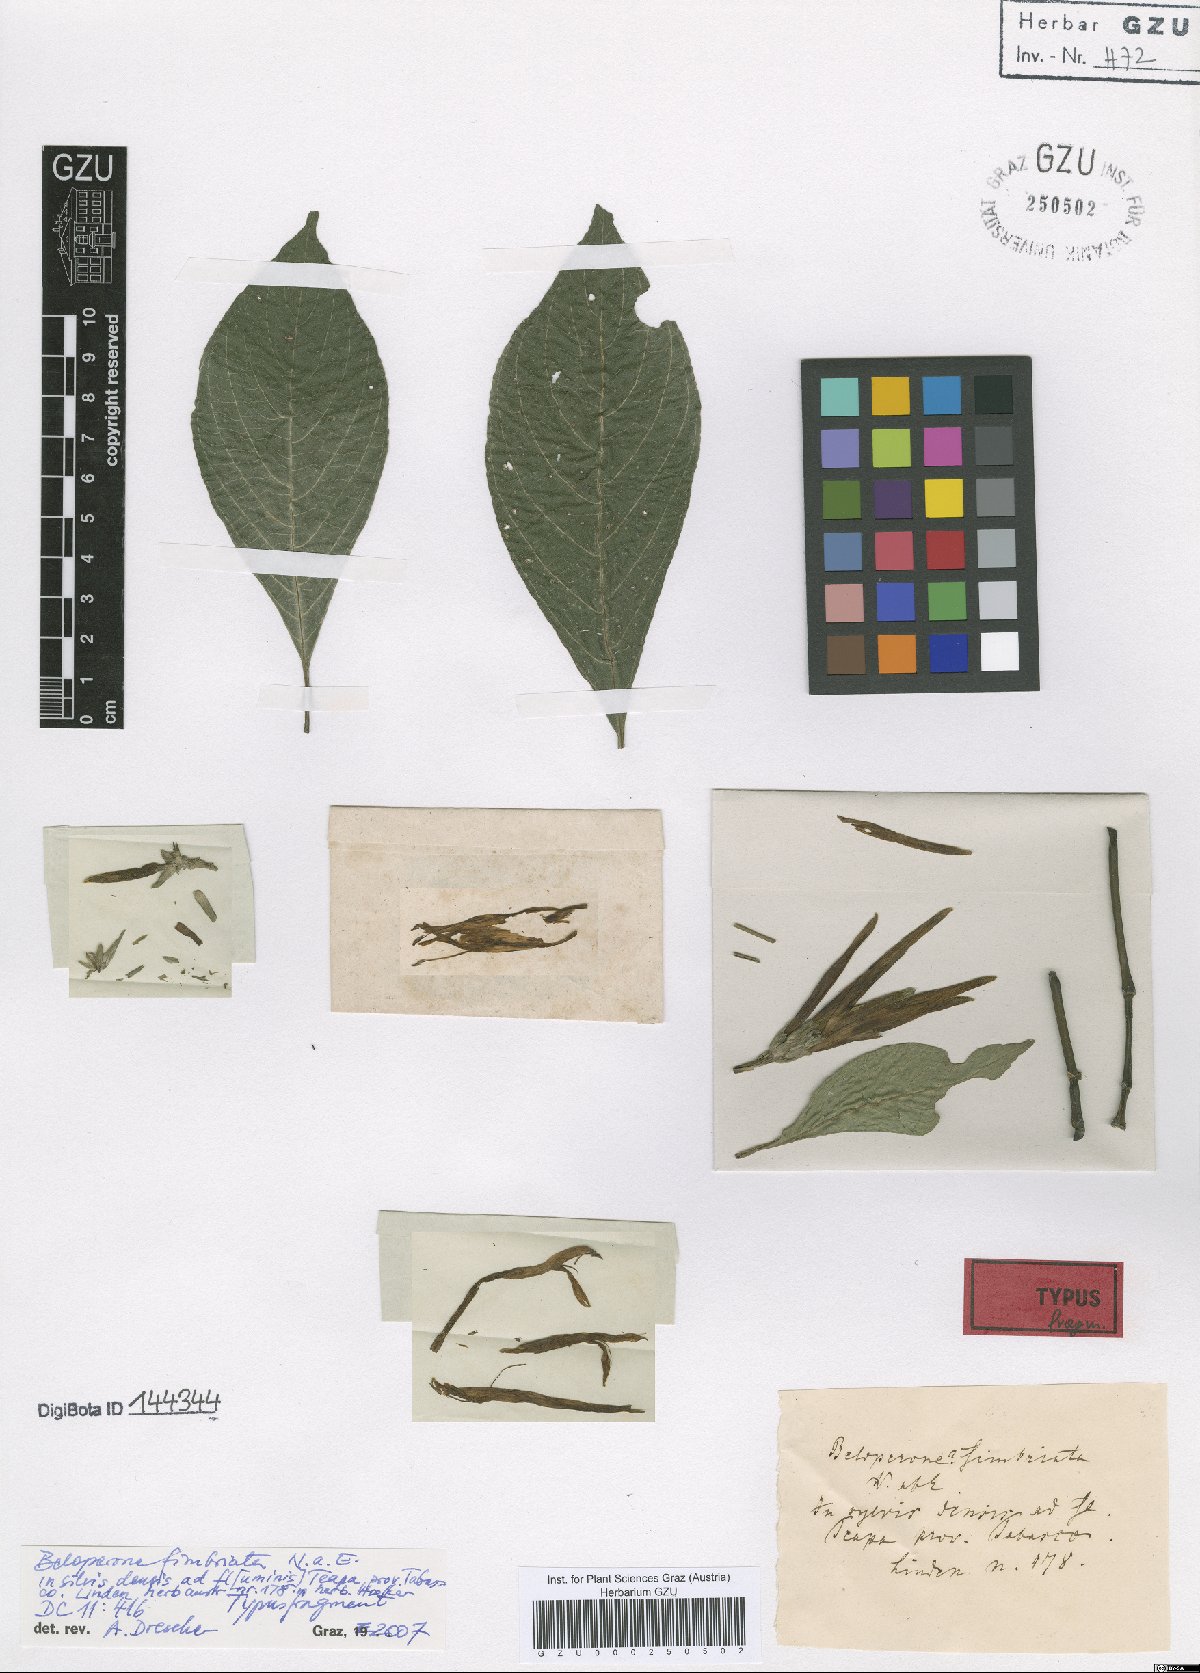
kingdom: Plantae
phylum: Tracheophyta
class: Magnoliopsida
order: Lamiales
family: Acanthaceae
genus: Justicia
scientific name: Justicia fimbriata
